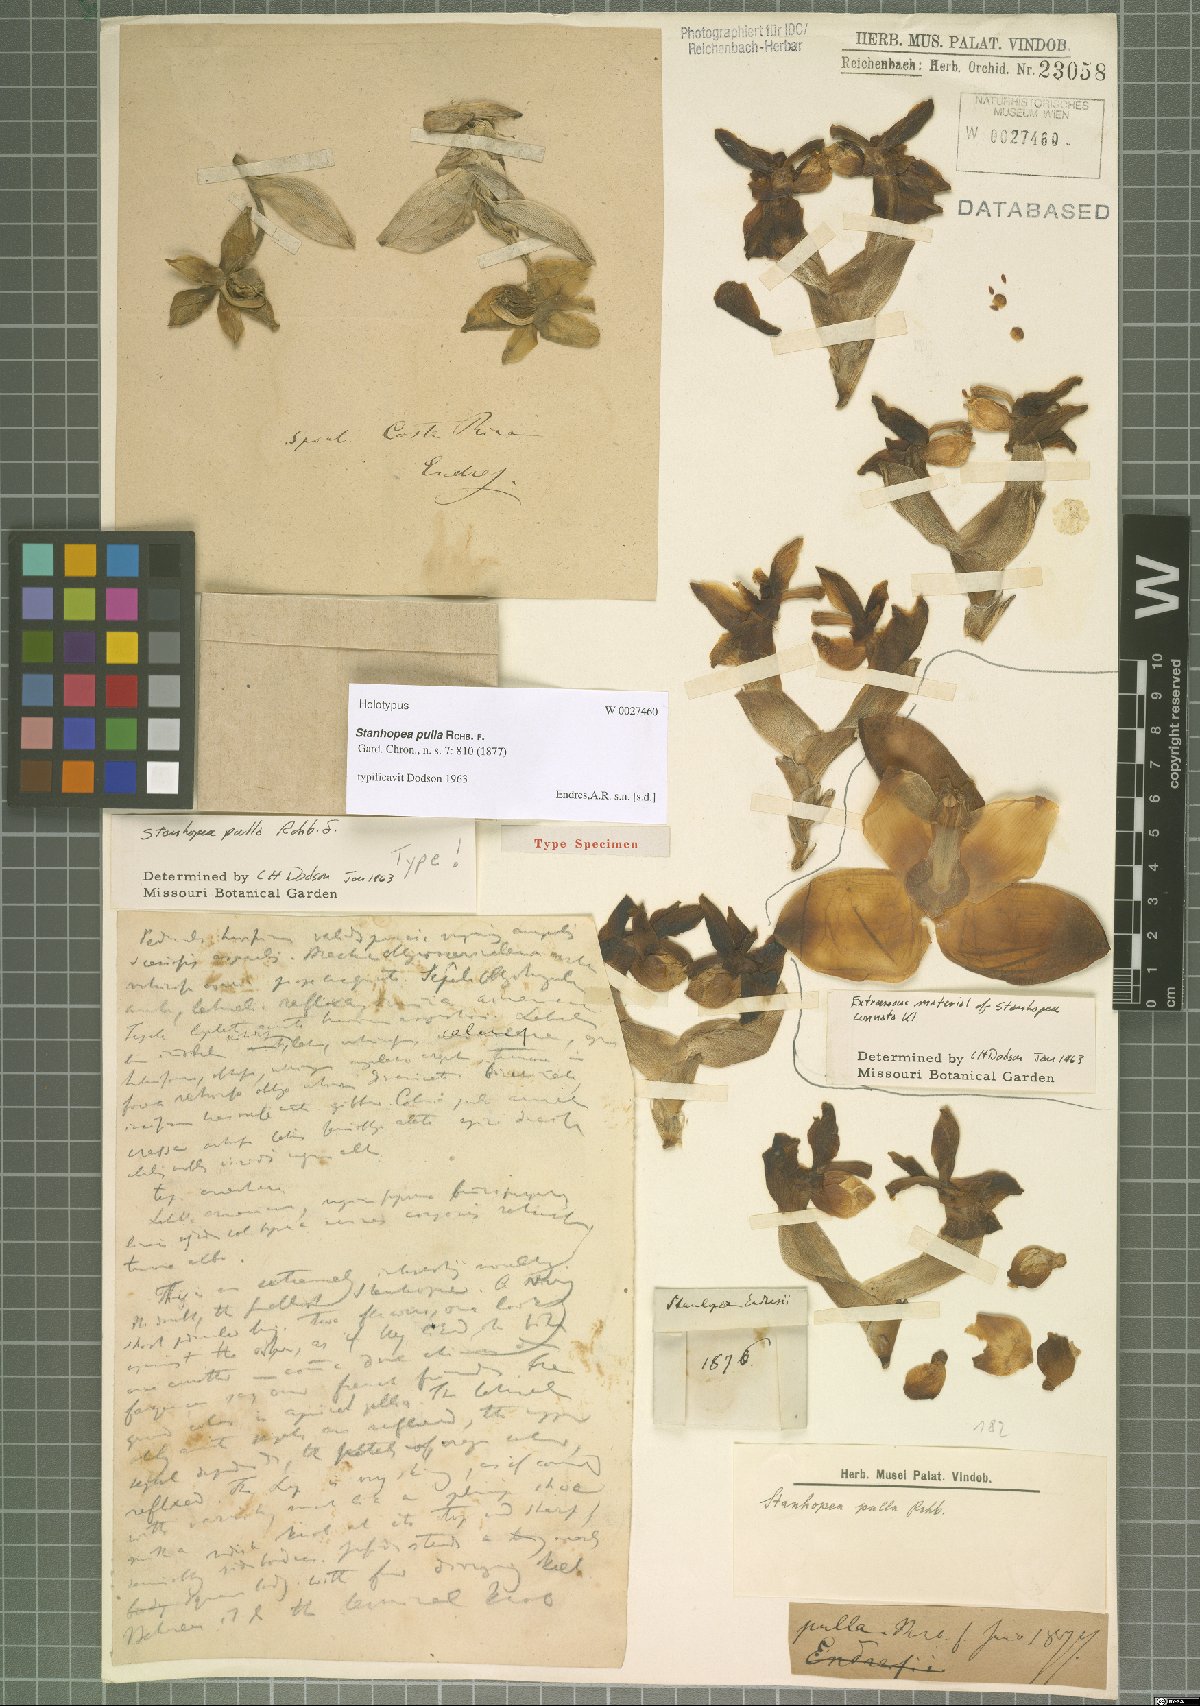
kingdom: Plantae
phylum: Tracheophyta
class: Liliopsida
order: Asparagales
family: Orchidaceae
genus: Stanhopea
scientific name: Stanhopea pulla
